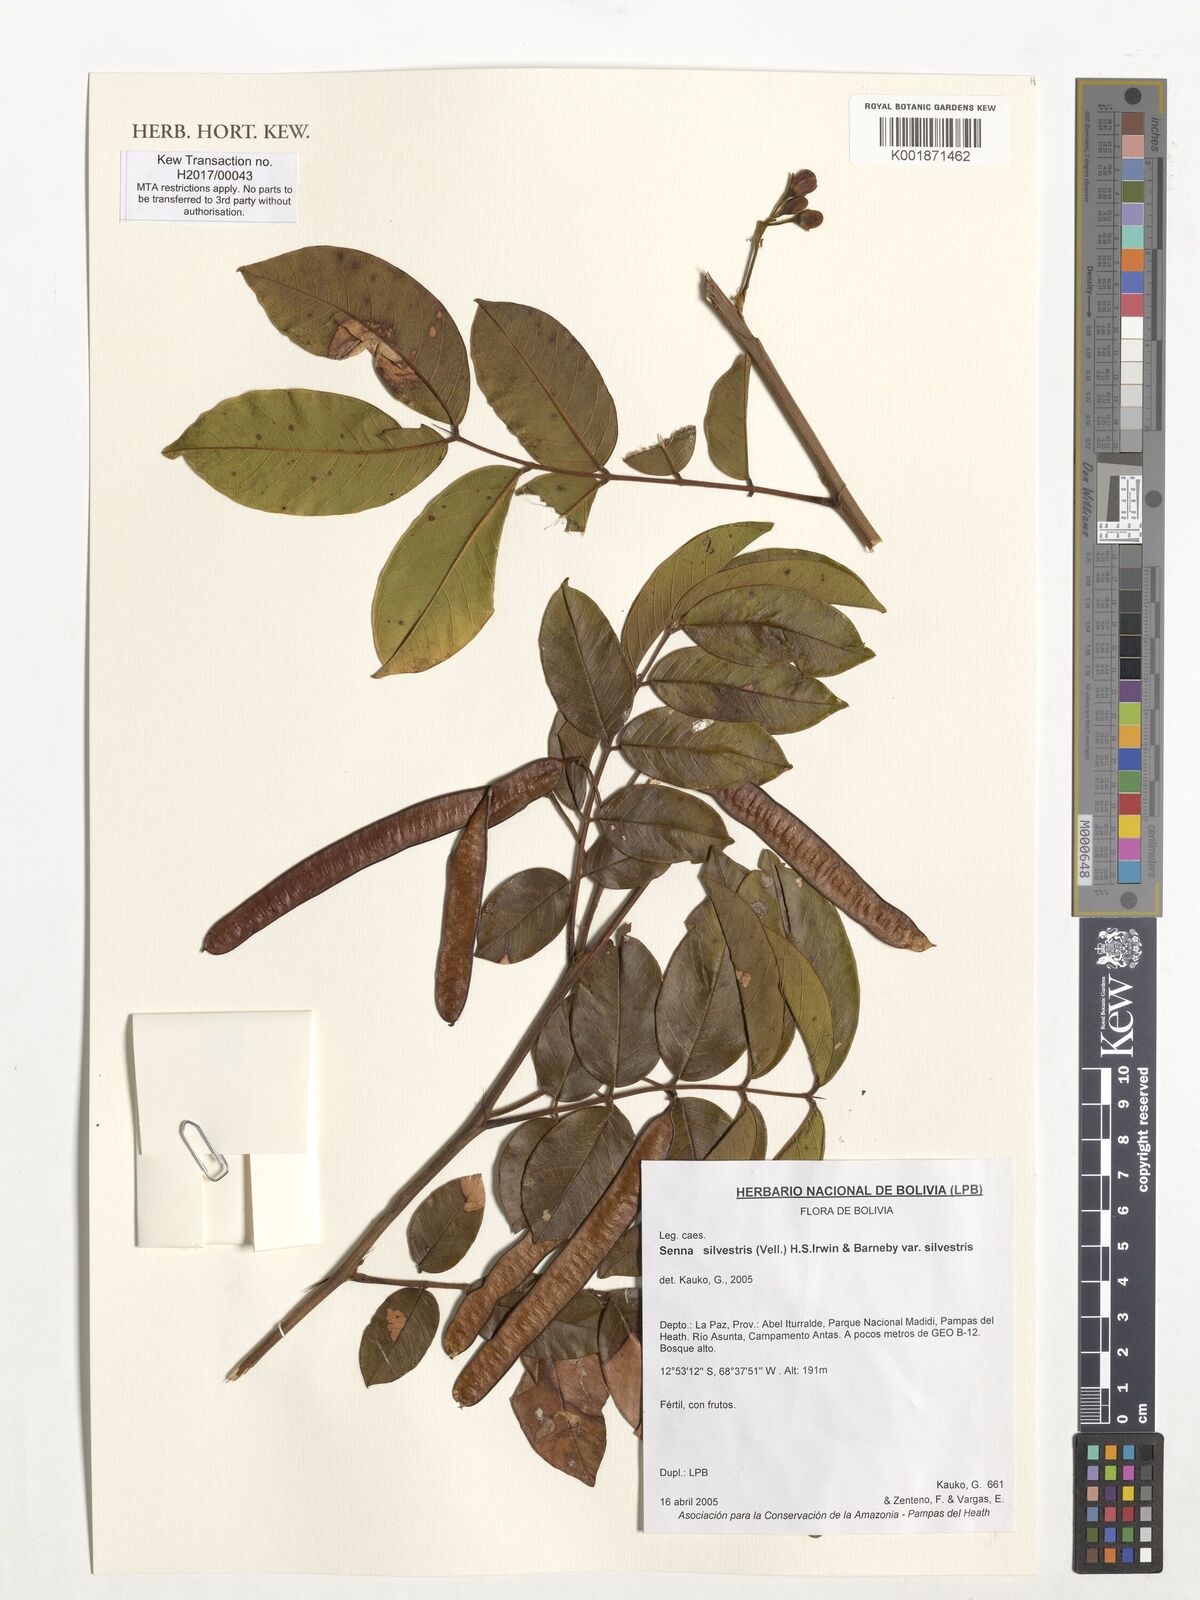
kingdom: Plantae
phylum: Tracheophyta
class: Magnoliopsida
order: Fabales
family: Fabaceae
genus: Senna
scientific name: Senna silvestris
